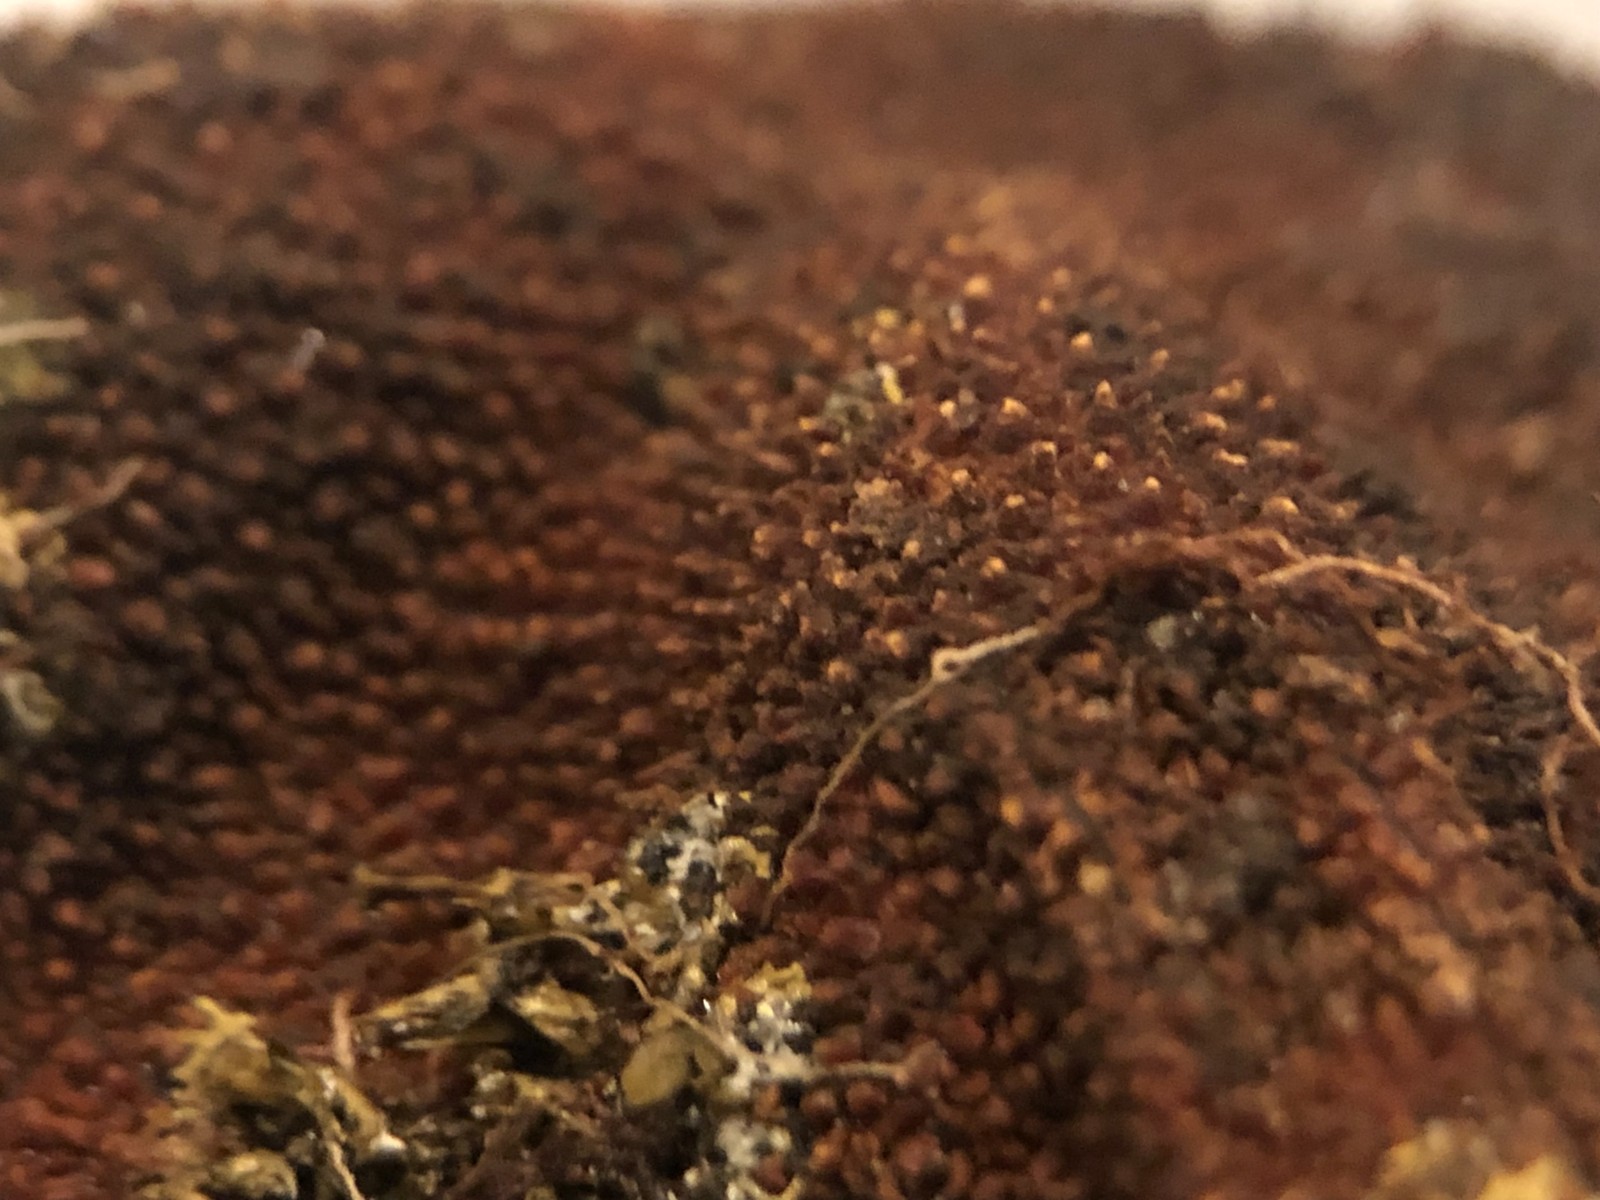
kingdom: Fungi
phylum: Ascomycota
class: Eurotiomycetes
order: Eurotiales
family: Elaphomycetaceae
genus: Elaphomyces
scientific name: Elaphomyces muricatus
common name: vortet hjortetrøffel
